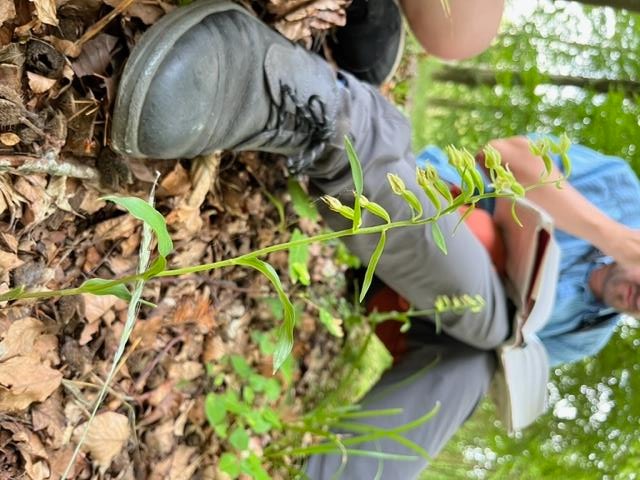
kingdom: Plantae
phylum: Tracheophyta
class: Liliopsida
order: Asparagales
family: Orchidaceae
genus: Epipactis
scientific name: Epipactis phyllanthes
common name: Nikkende hullæbe
